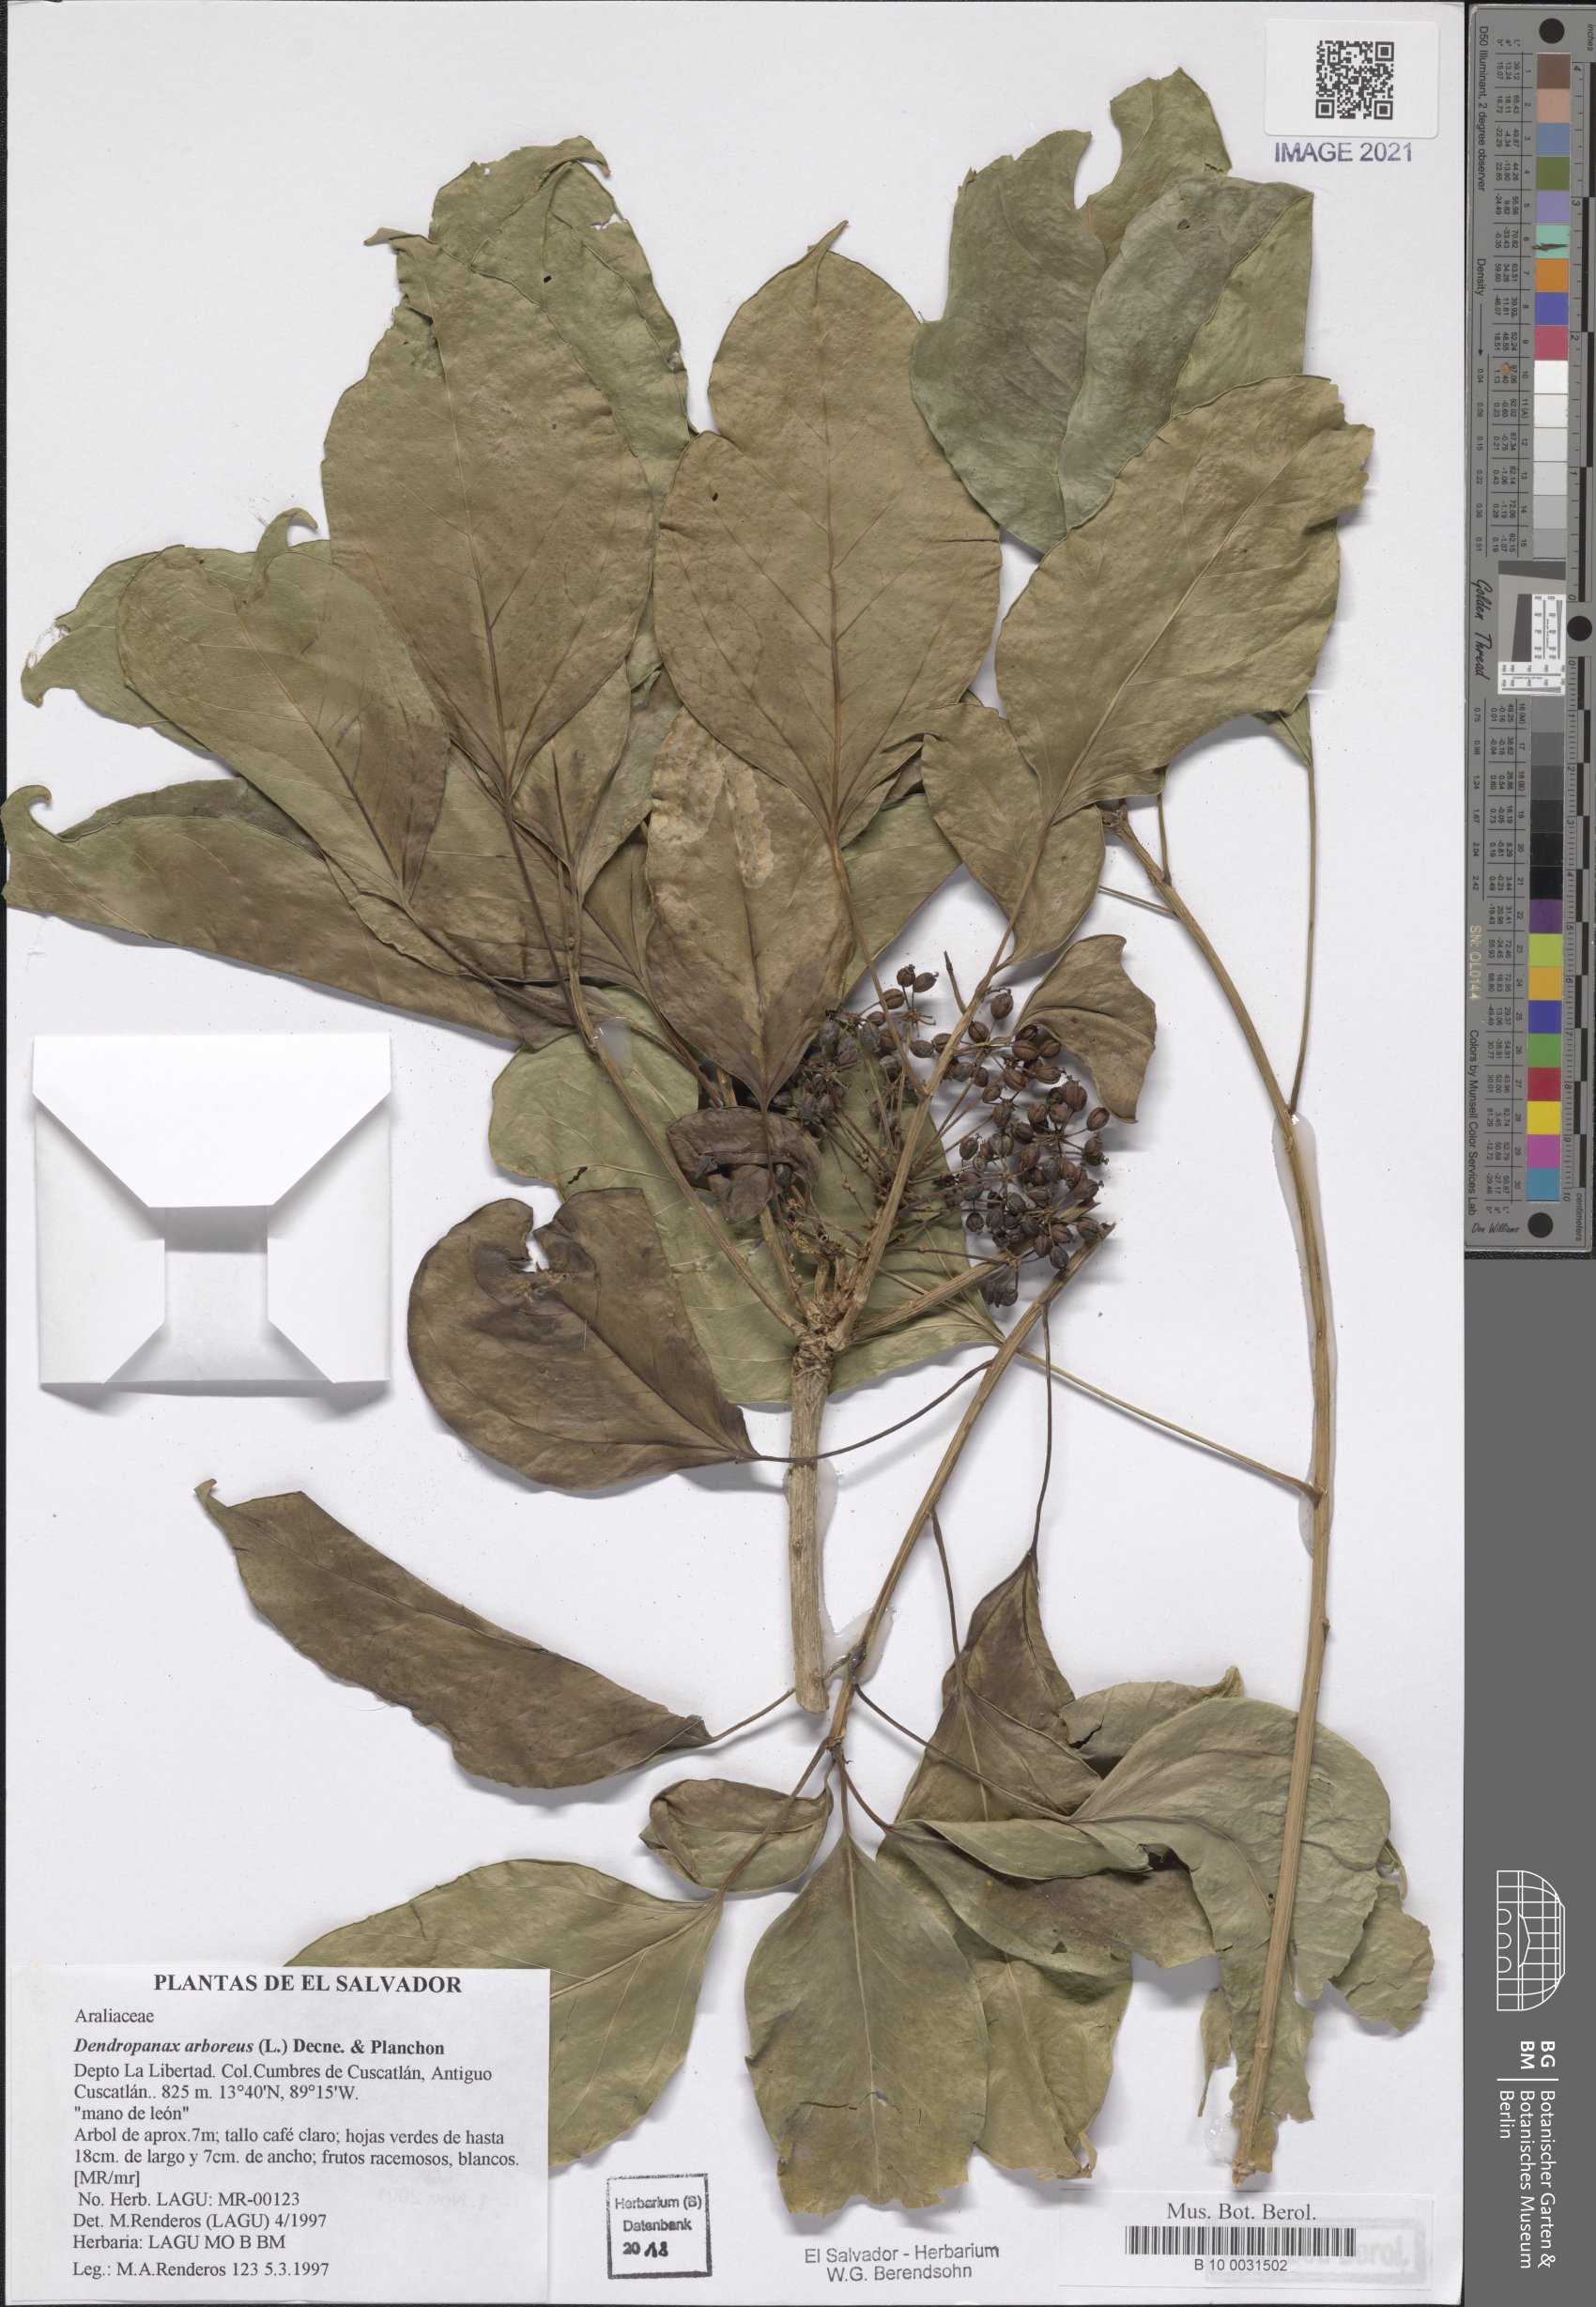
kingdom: Plantae
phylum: Tracheophyta
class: Magnoliopsida
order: Apiales
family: Araliaceae
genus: Dendropanax
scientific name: Dendropanax arboreus
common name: Potato-wood
